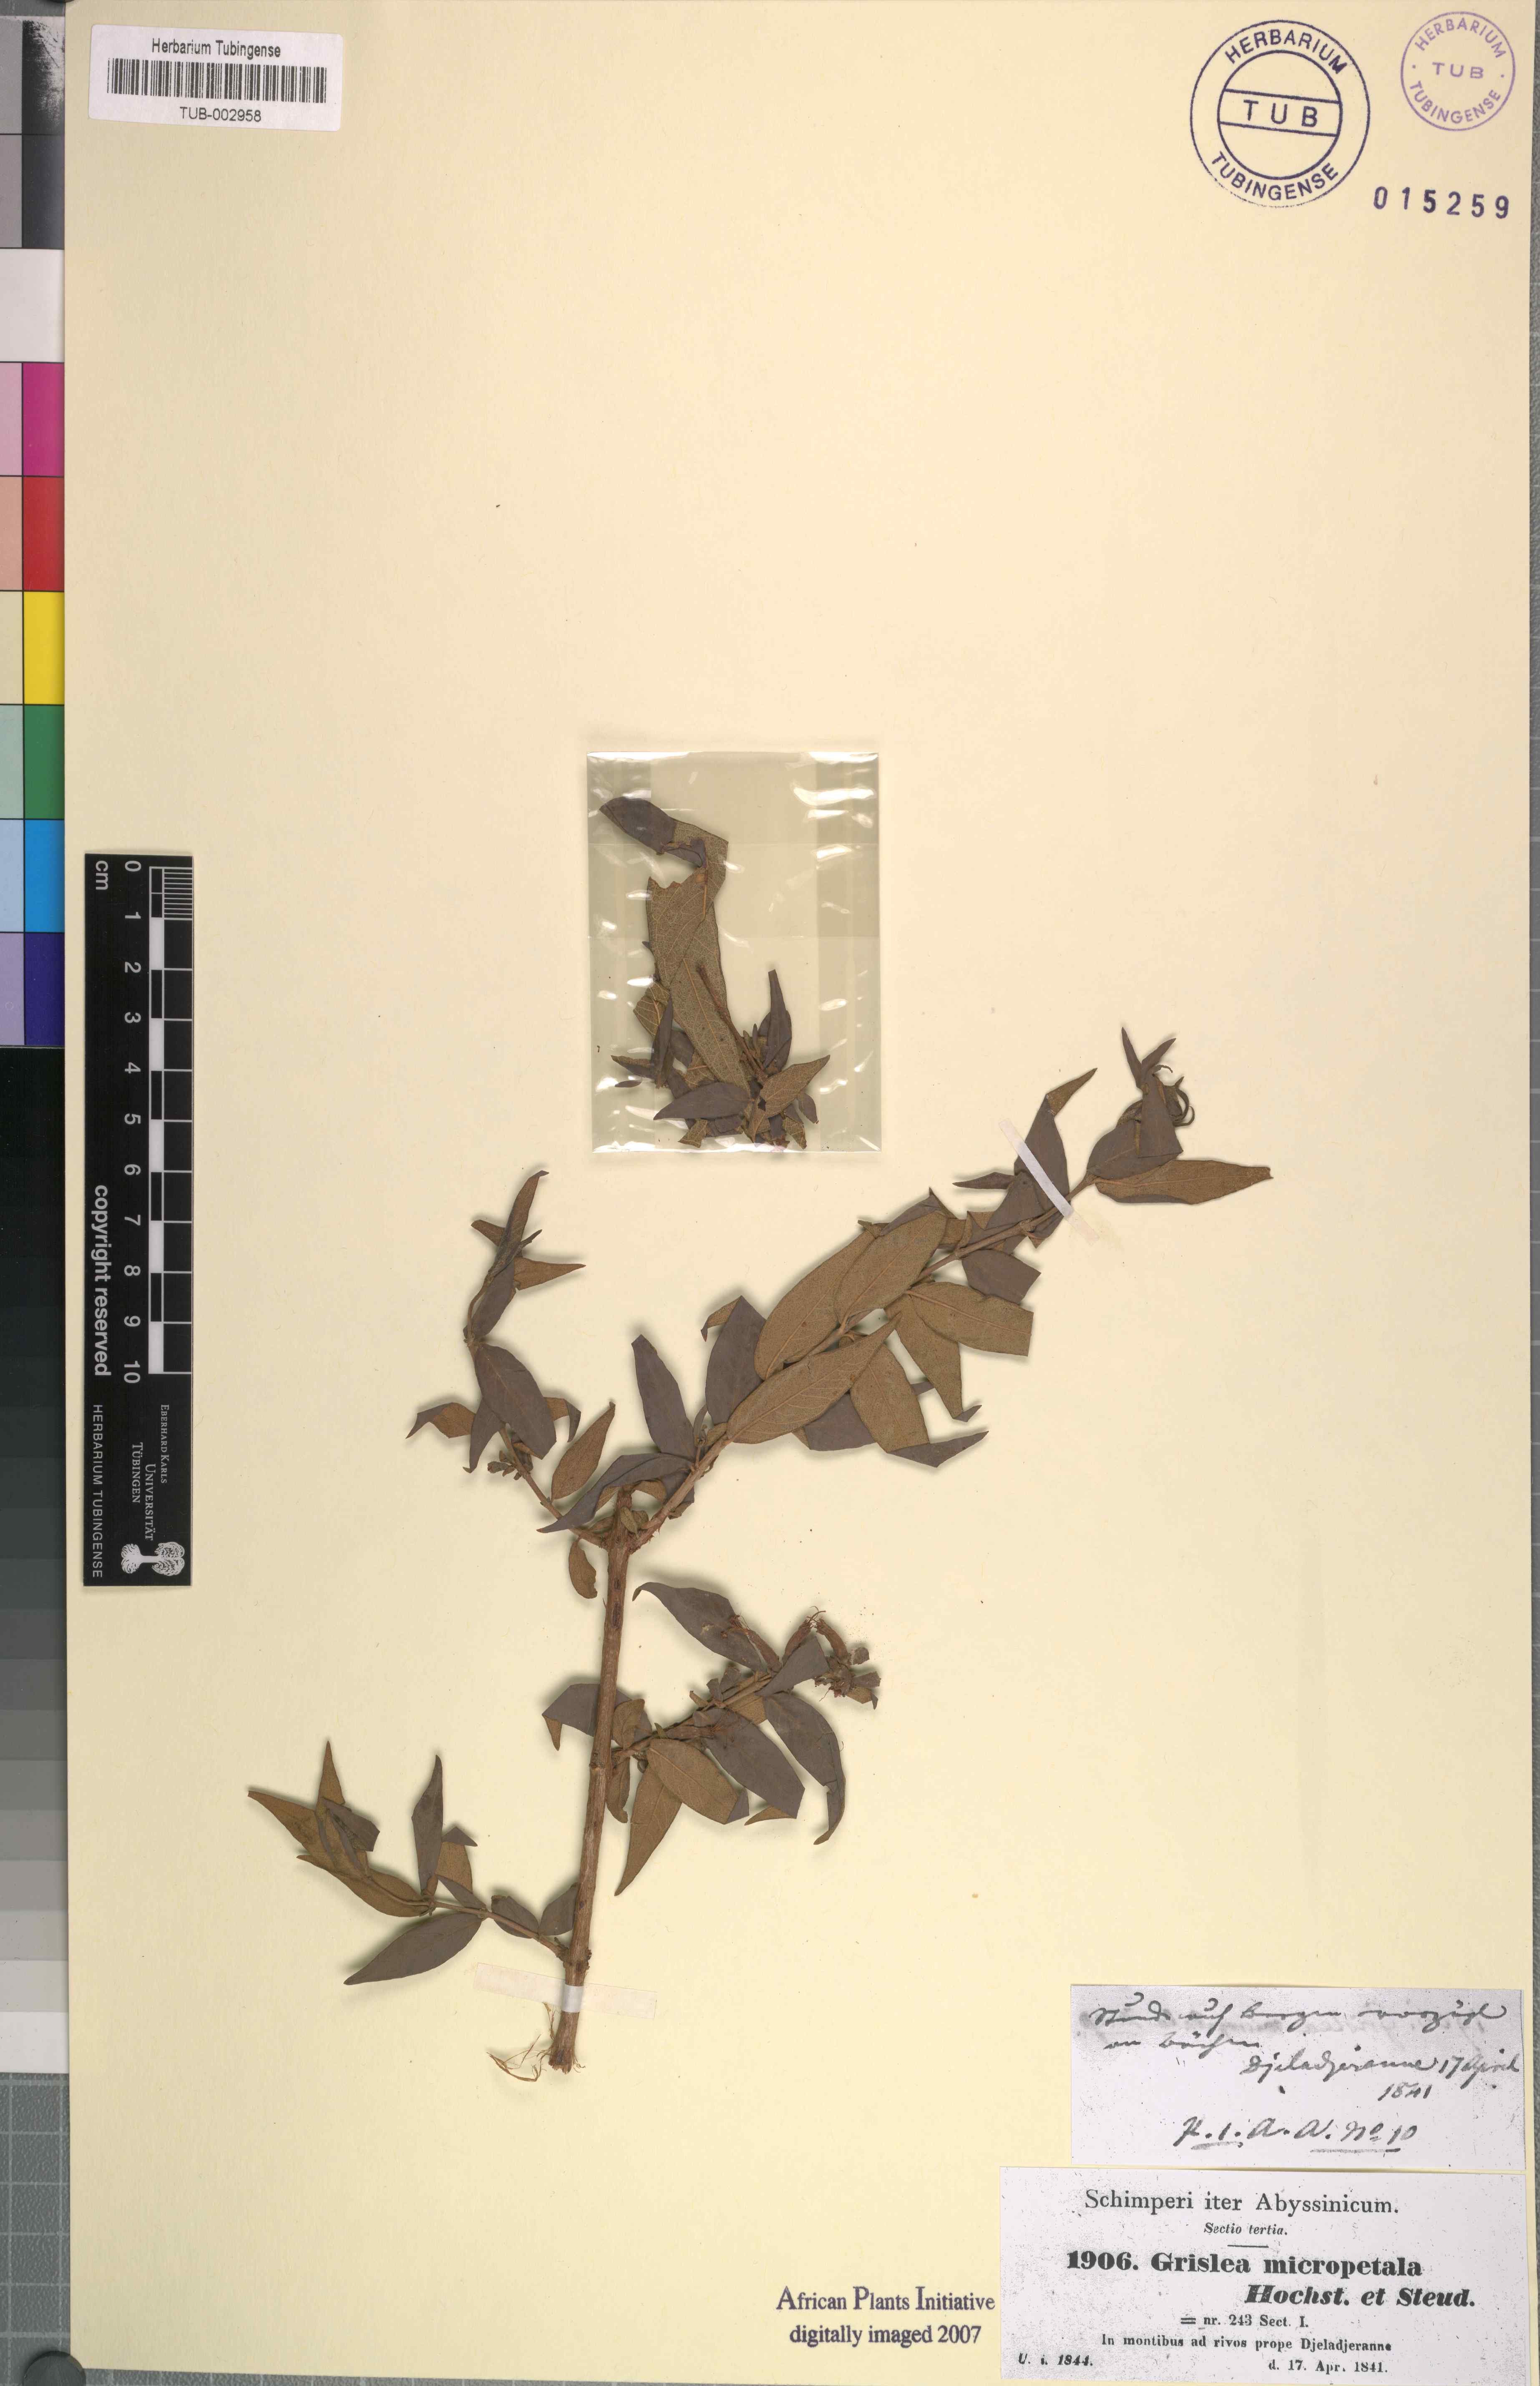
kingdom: Plantae
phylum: Tracheophyta
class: Magnoliopsida
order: Myrtales
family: Lythraceae
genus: Woodfordia
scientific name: Woodfordia uniflora
